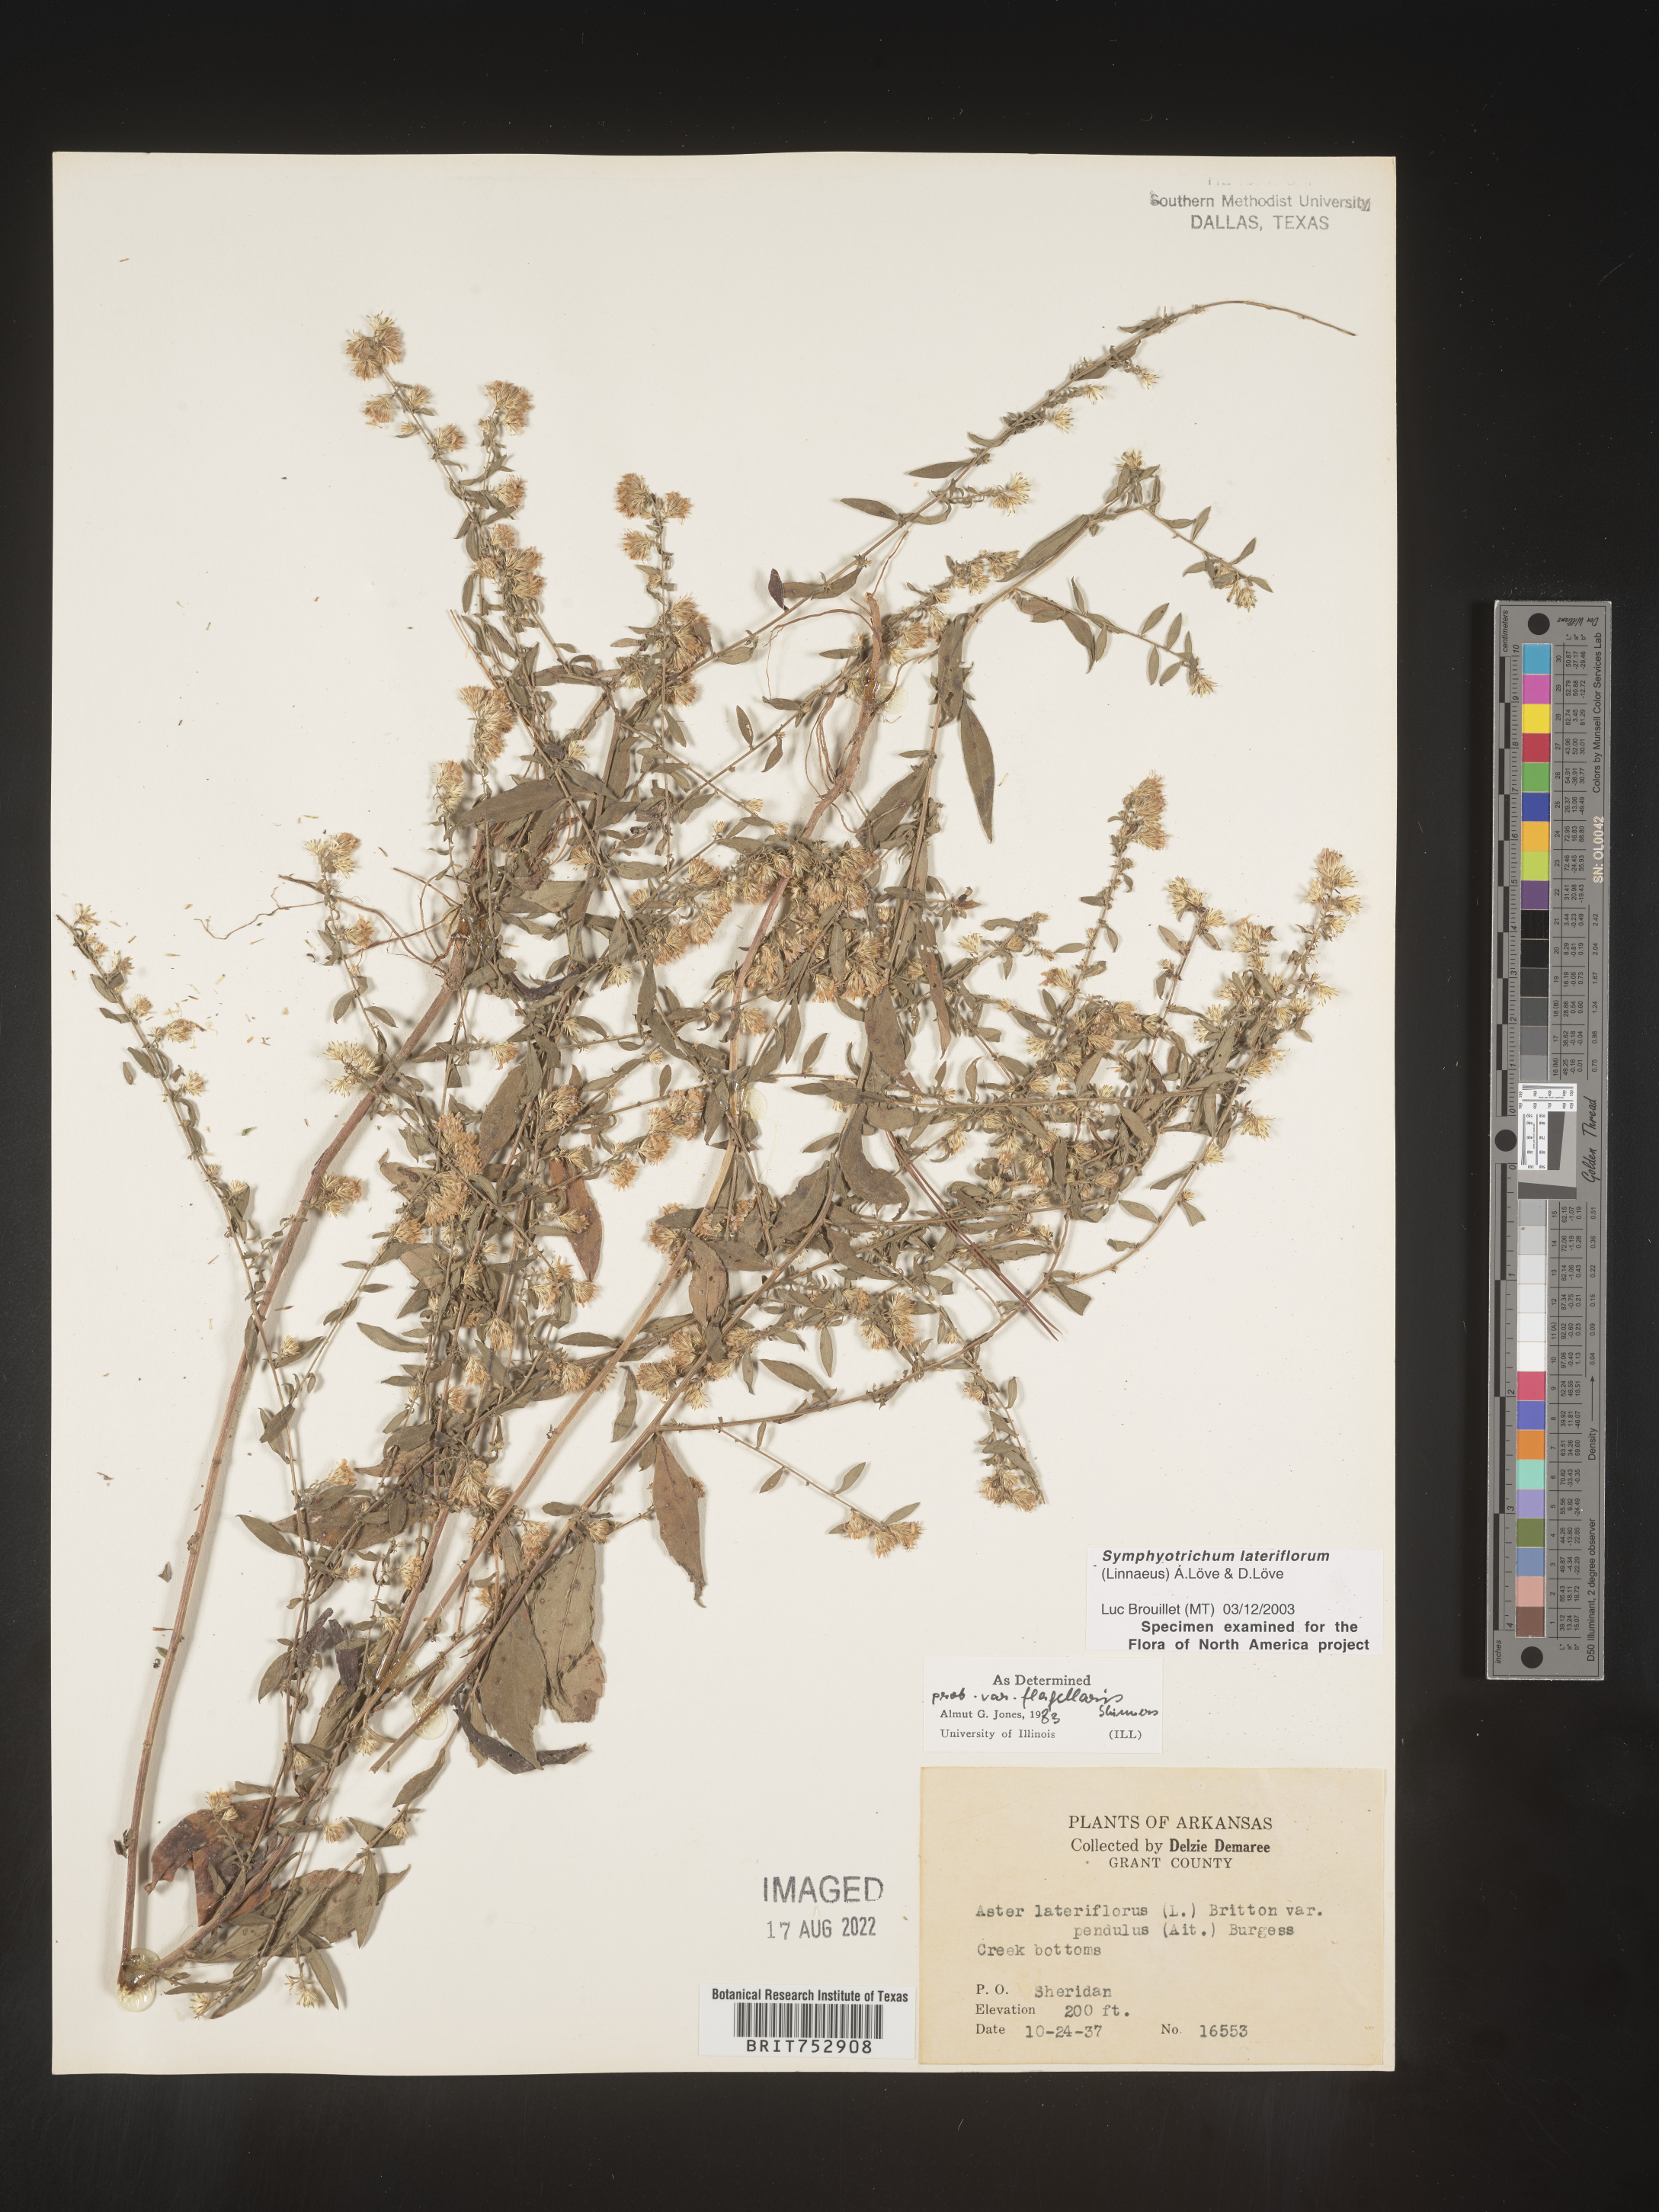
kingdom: Plantae
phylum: Tracheophyta
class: Magnoliopsida
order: Asterales
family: Asteraceae
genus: Symphyotrichum
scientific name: Symphyotrichum lateriflorum
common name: Calico aster
